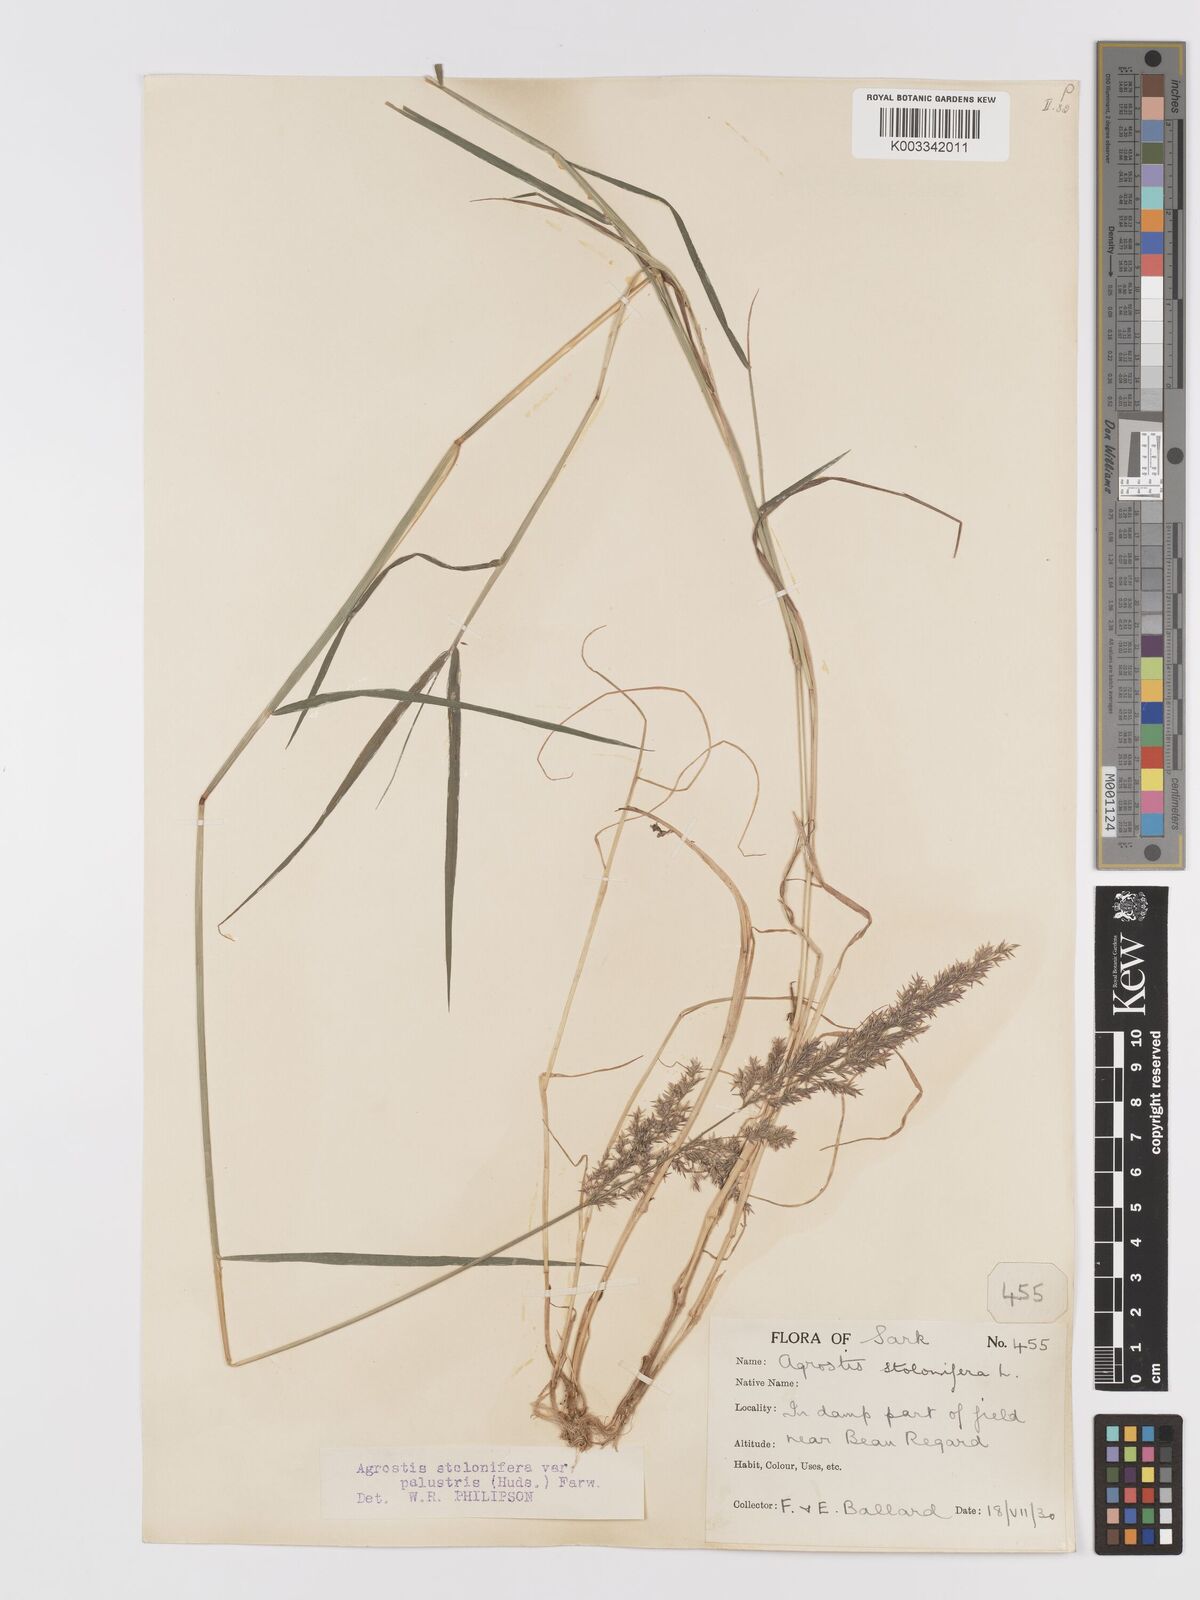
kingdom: Plantae
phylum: Tracheophyta
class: Liliopsida
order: Poales
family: Poaceae
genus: Agrostis
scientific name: Agrostis stolonifera
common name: Creeping bentgrass
